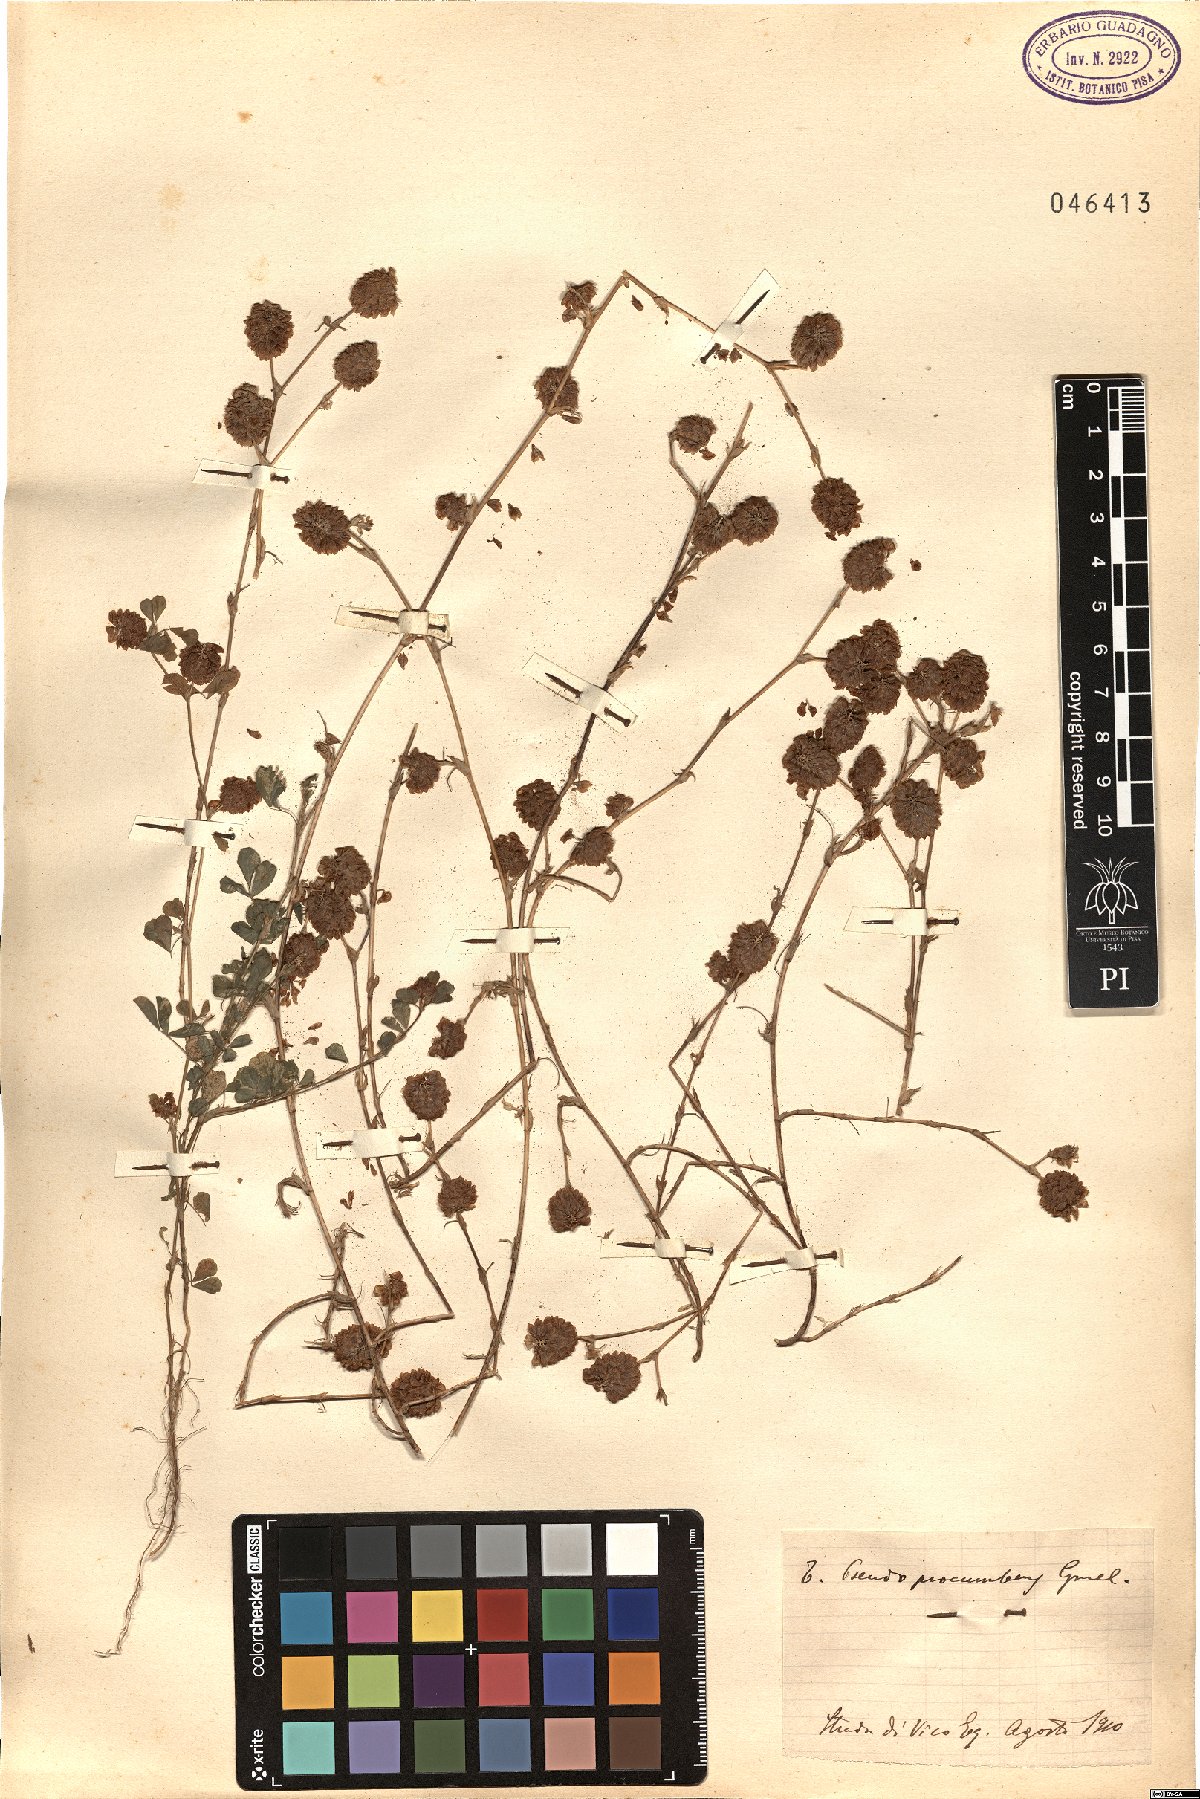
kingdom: Plantae
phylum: Tracheophyta
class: Magnoliopsida
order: Fabales
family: Fabaceae
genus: Trifolium
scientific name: Trifolium campestre
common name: Field clover
